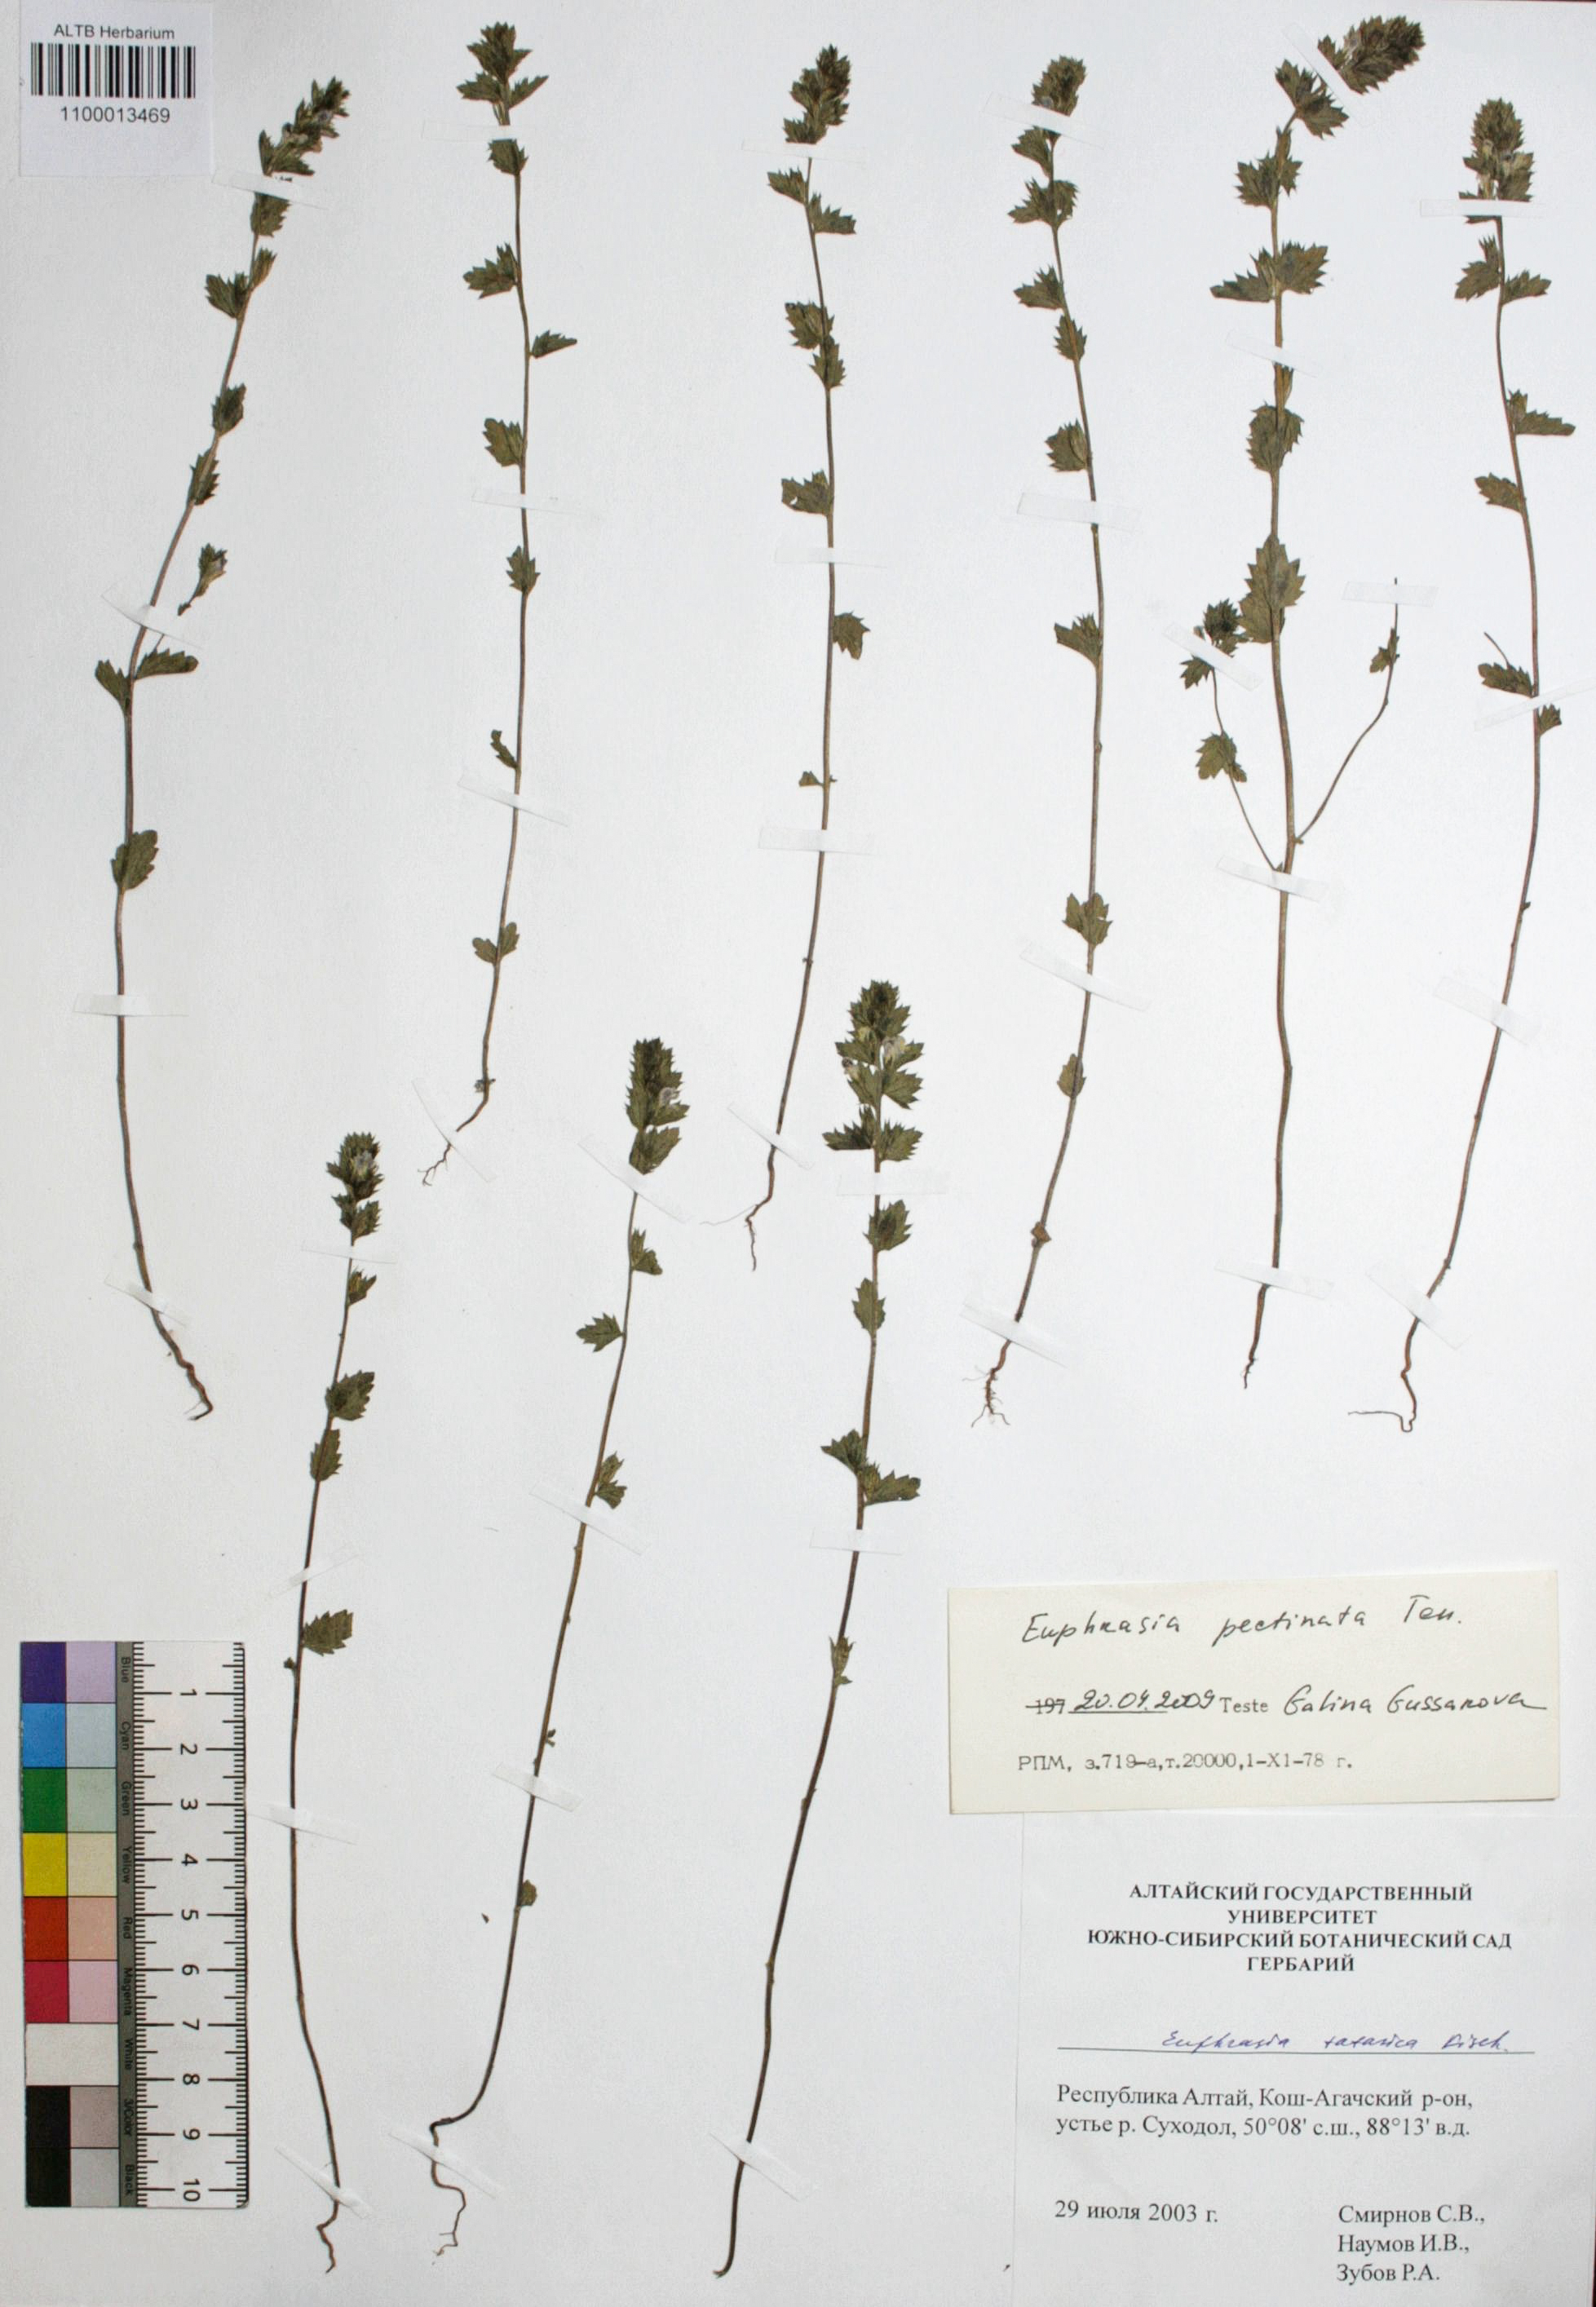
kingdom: Plantae
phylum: Tracheophyta
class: Magnoliopsida
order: Lamiales
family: Orobanchaceae
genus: Euphrasia
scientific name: Euphrasia pectinata
